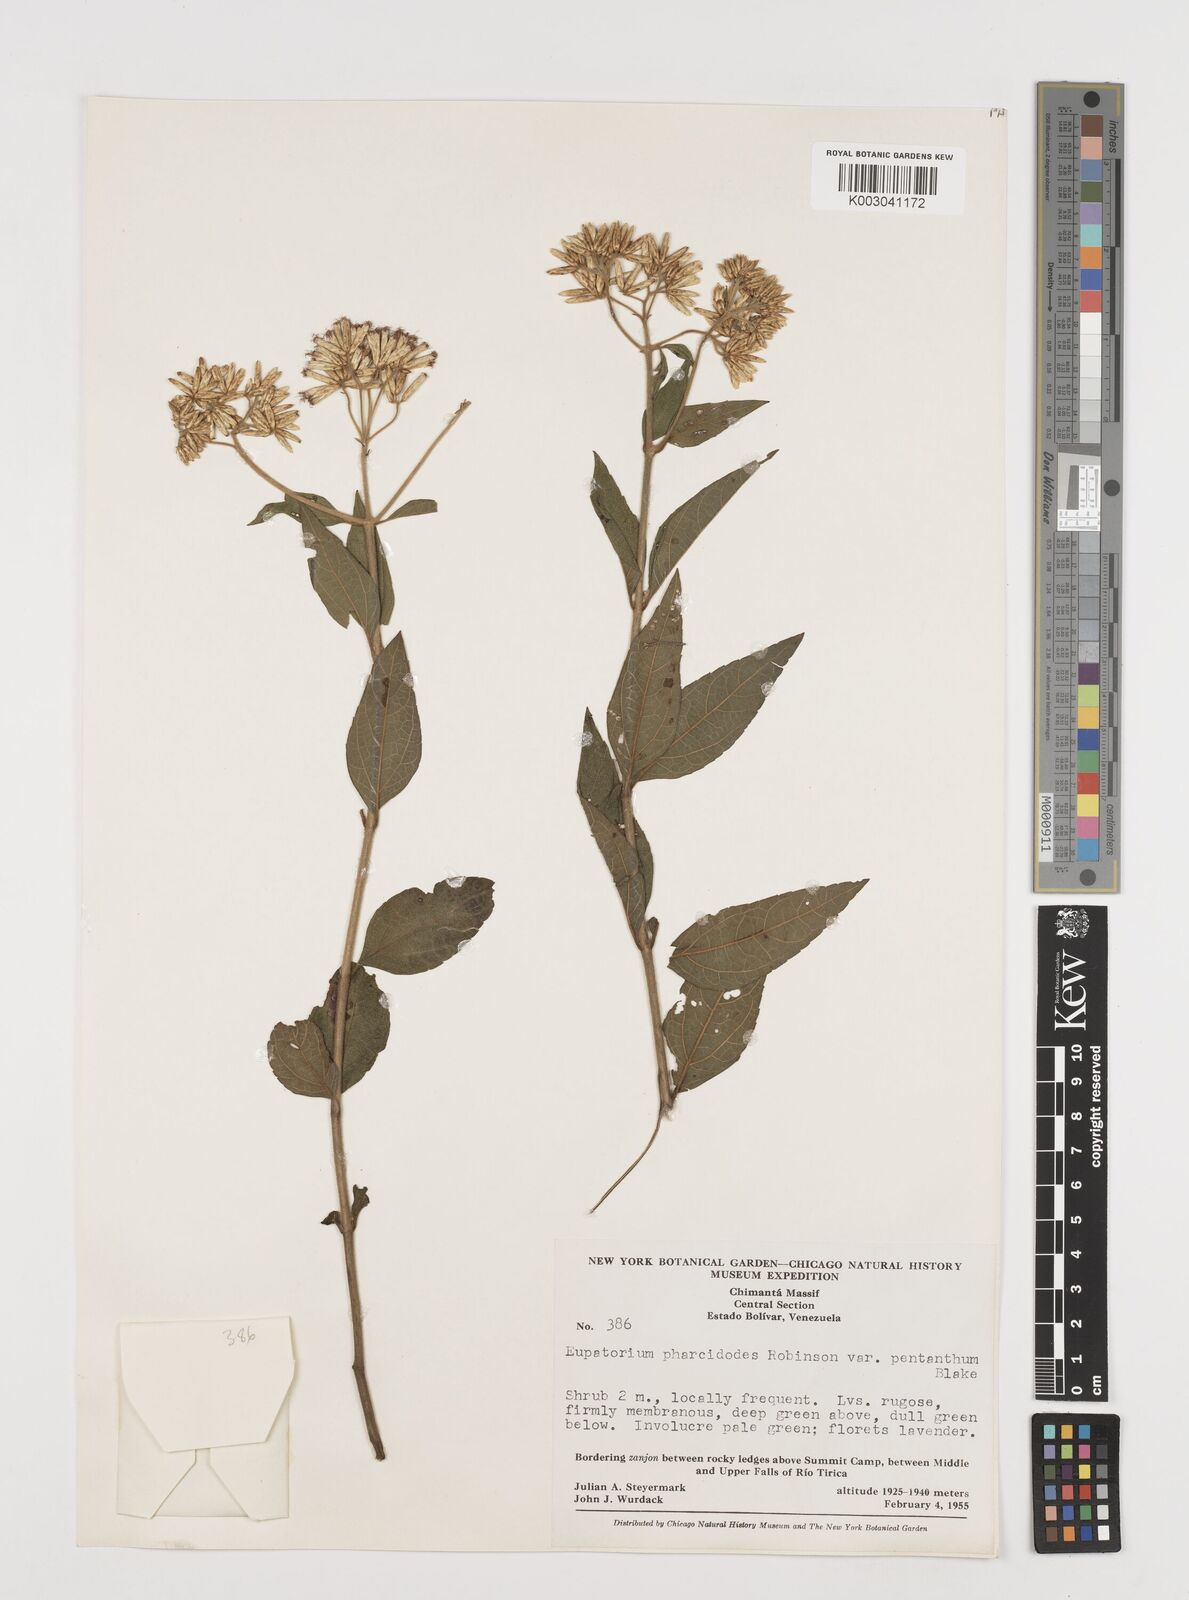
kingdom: Plantae
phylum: Tracheophyta
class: Magnoliopsida
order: Asterales
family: Asteraceae
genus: Chromolaena
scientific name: Chromolaena pharcidodes
